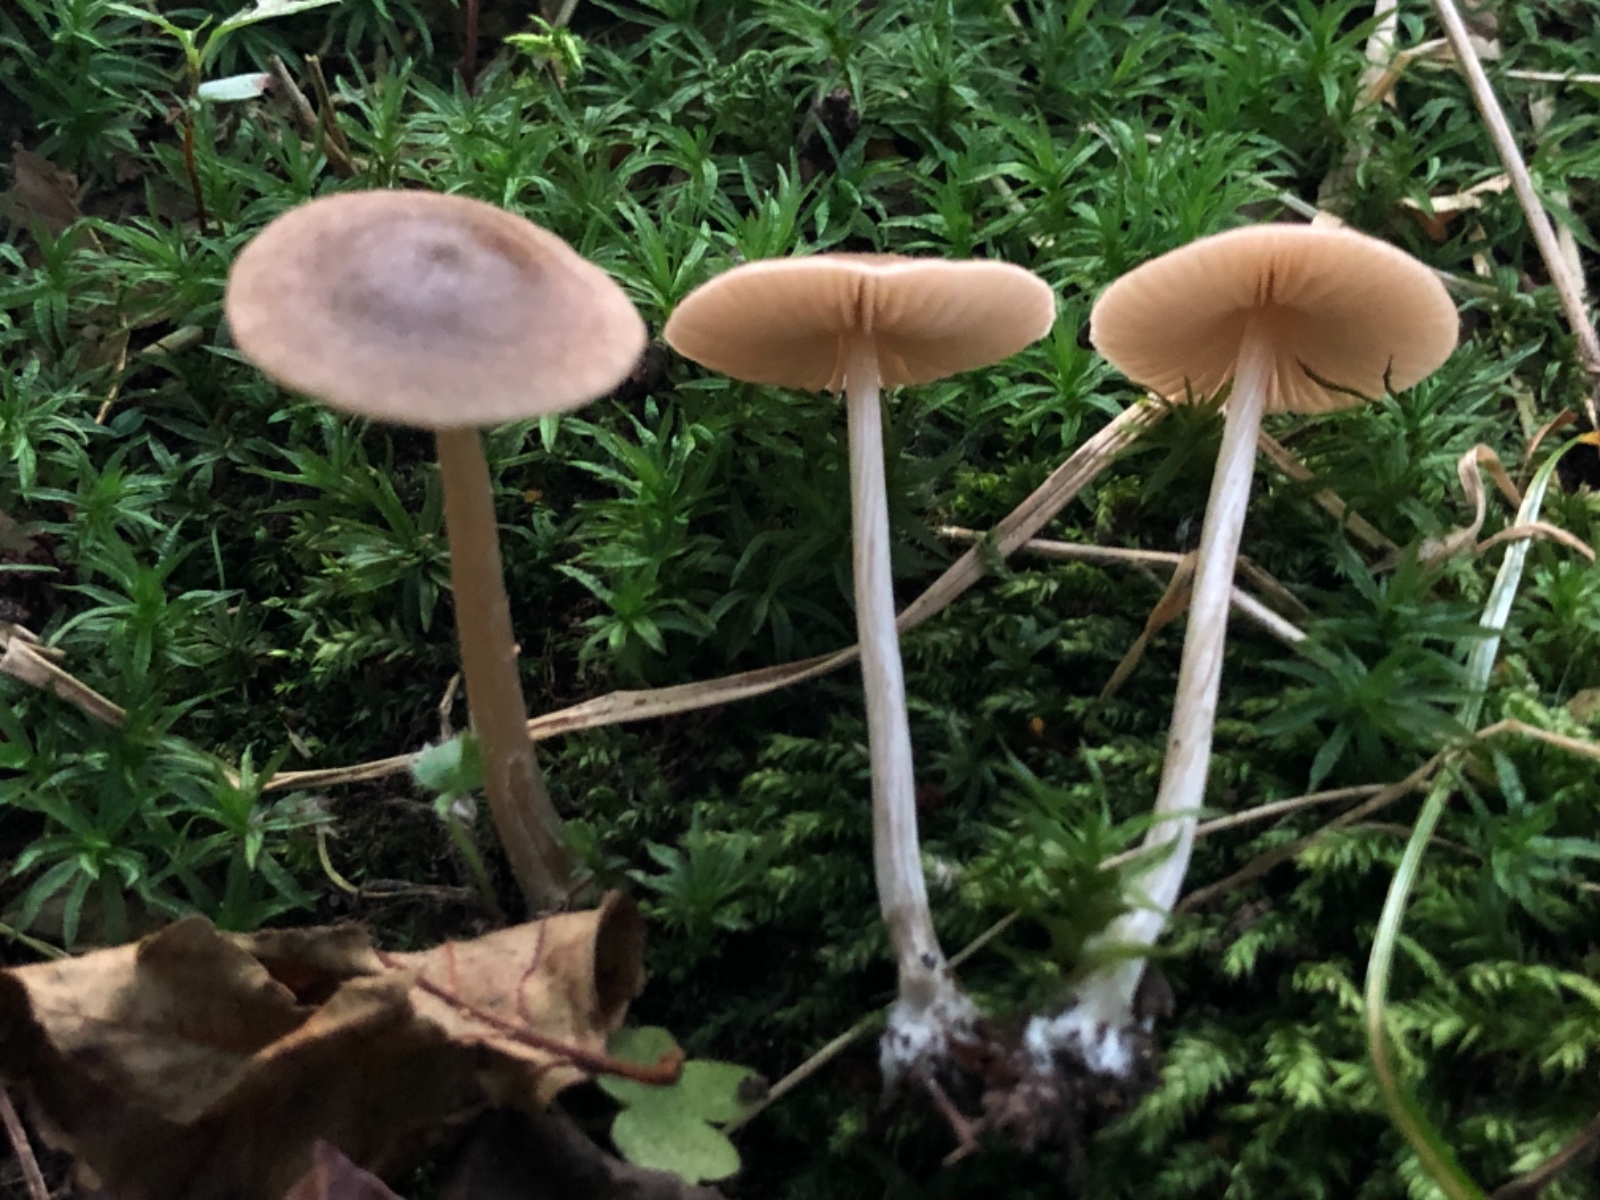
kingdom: Fungi
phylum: Basidiomycota
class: Agaricomycetes
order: Agaricales
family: Entolomataceae
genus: Entoloma
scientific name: Entoloma
